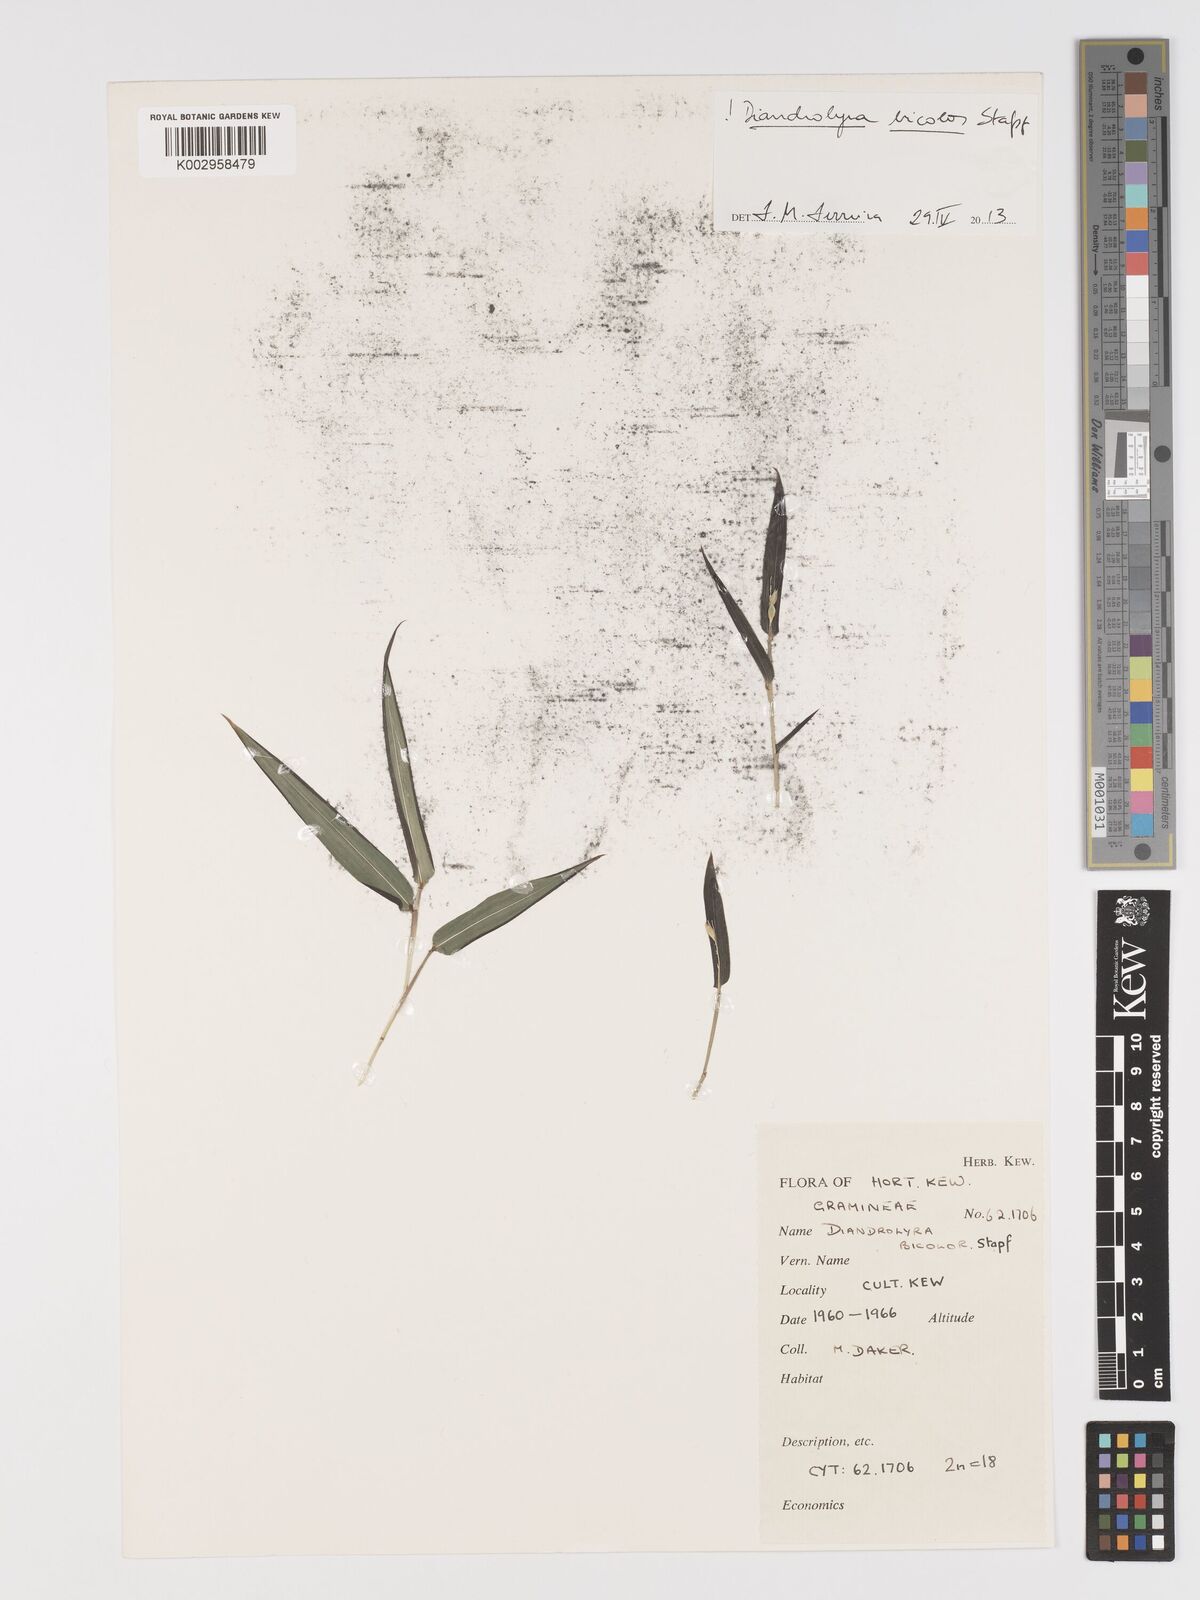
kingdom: Plantae
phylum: Tracheophyta
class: Liliopsida
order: Poales
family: Poaceae
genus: Diandrolyra
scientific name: Diandrolyra bicolor
